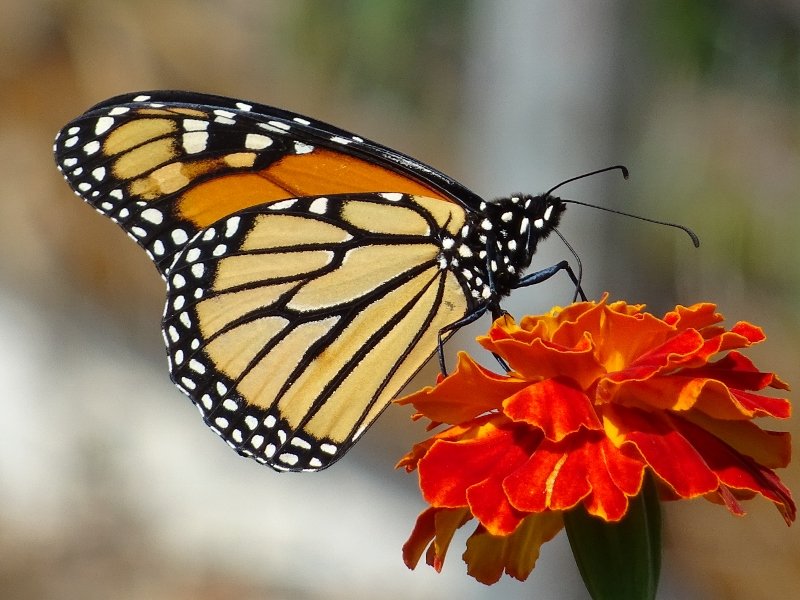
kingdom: Animalia
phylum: Arthropoda
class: Insecta
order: Lepidoptera
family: Nymphalidae
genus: Danaus
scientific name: Danaus plexippus
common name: Monarch
